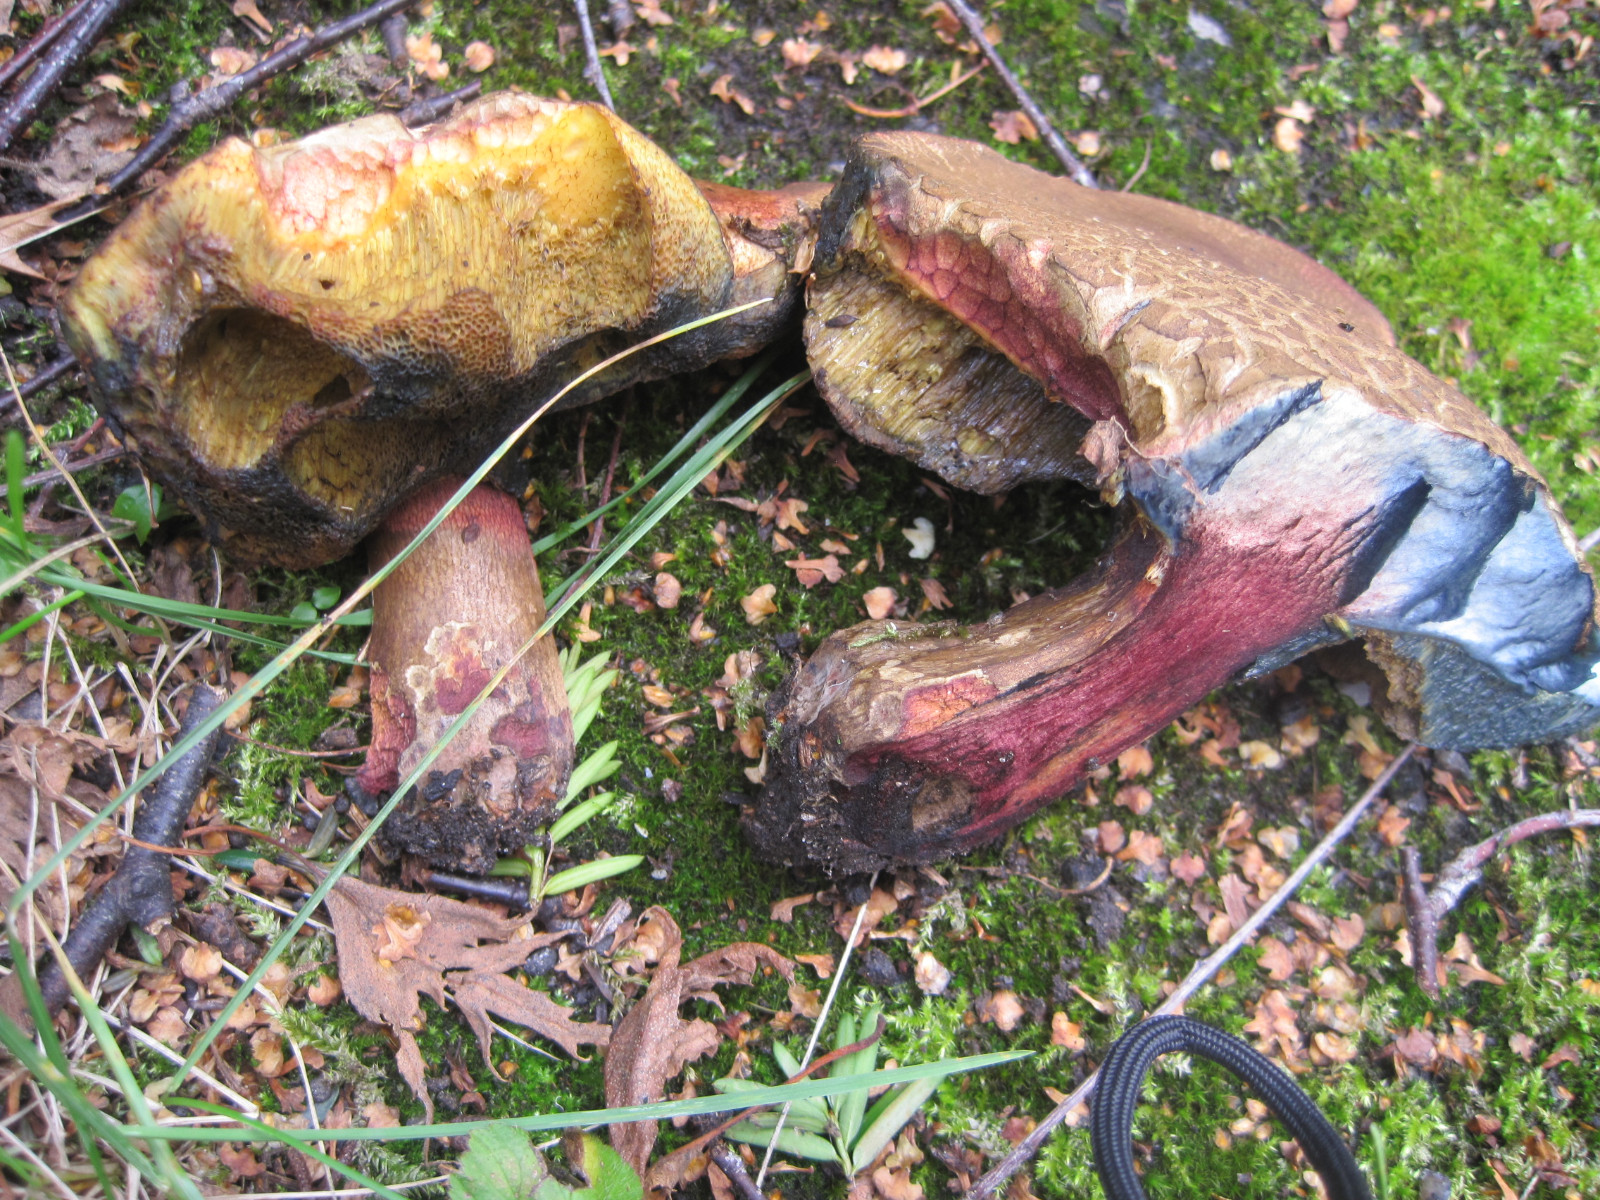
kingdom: Fungi
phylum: Basidiomycota
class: Agaricomycetes
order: Boletales
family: Boletaceae
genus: Suillellus
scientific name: Suillellus luridus
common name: netstokket indigorørhat
